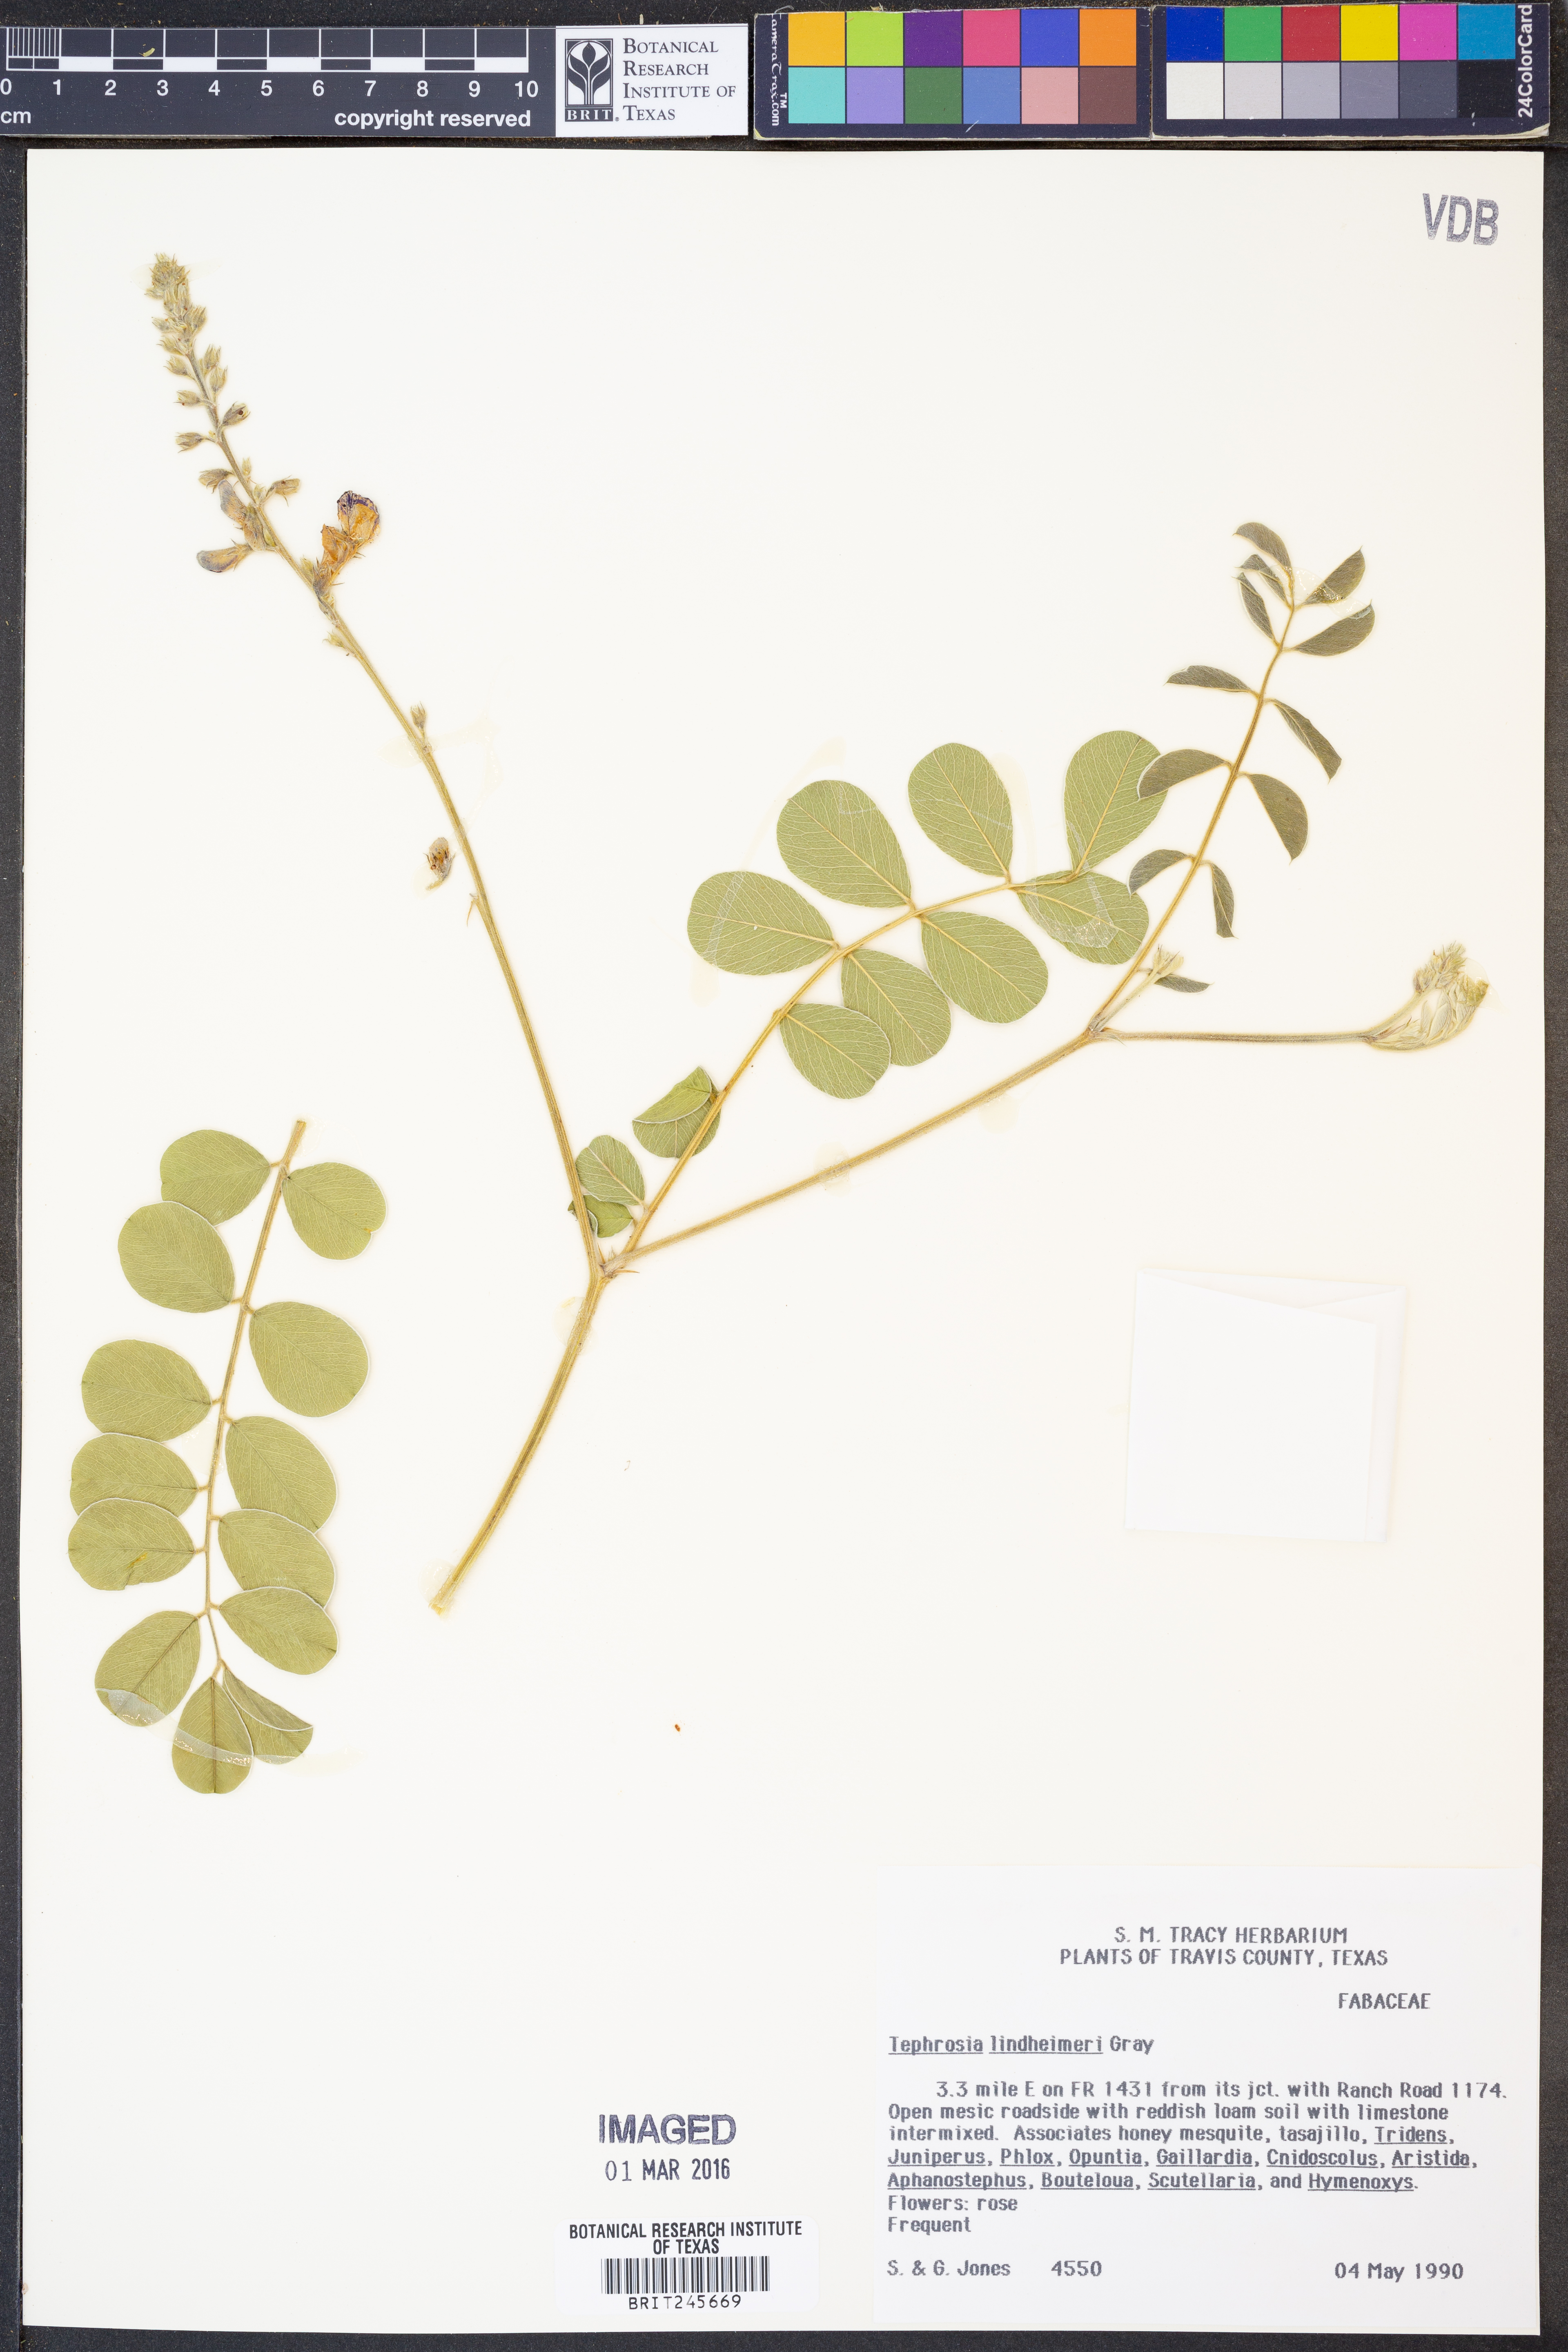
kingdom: Plantae
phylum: Tracheophyta
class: Magnoliopsida
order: Fabales
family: Fabaceae
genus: Tephrosia
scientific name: Tephrosia lindheimeri
